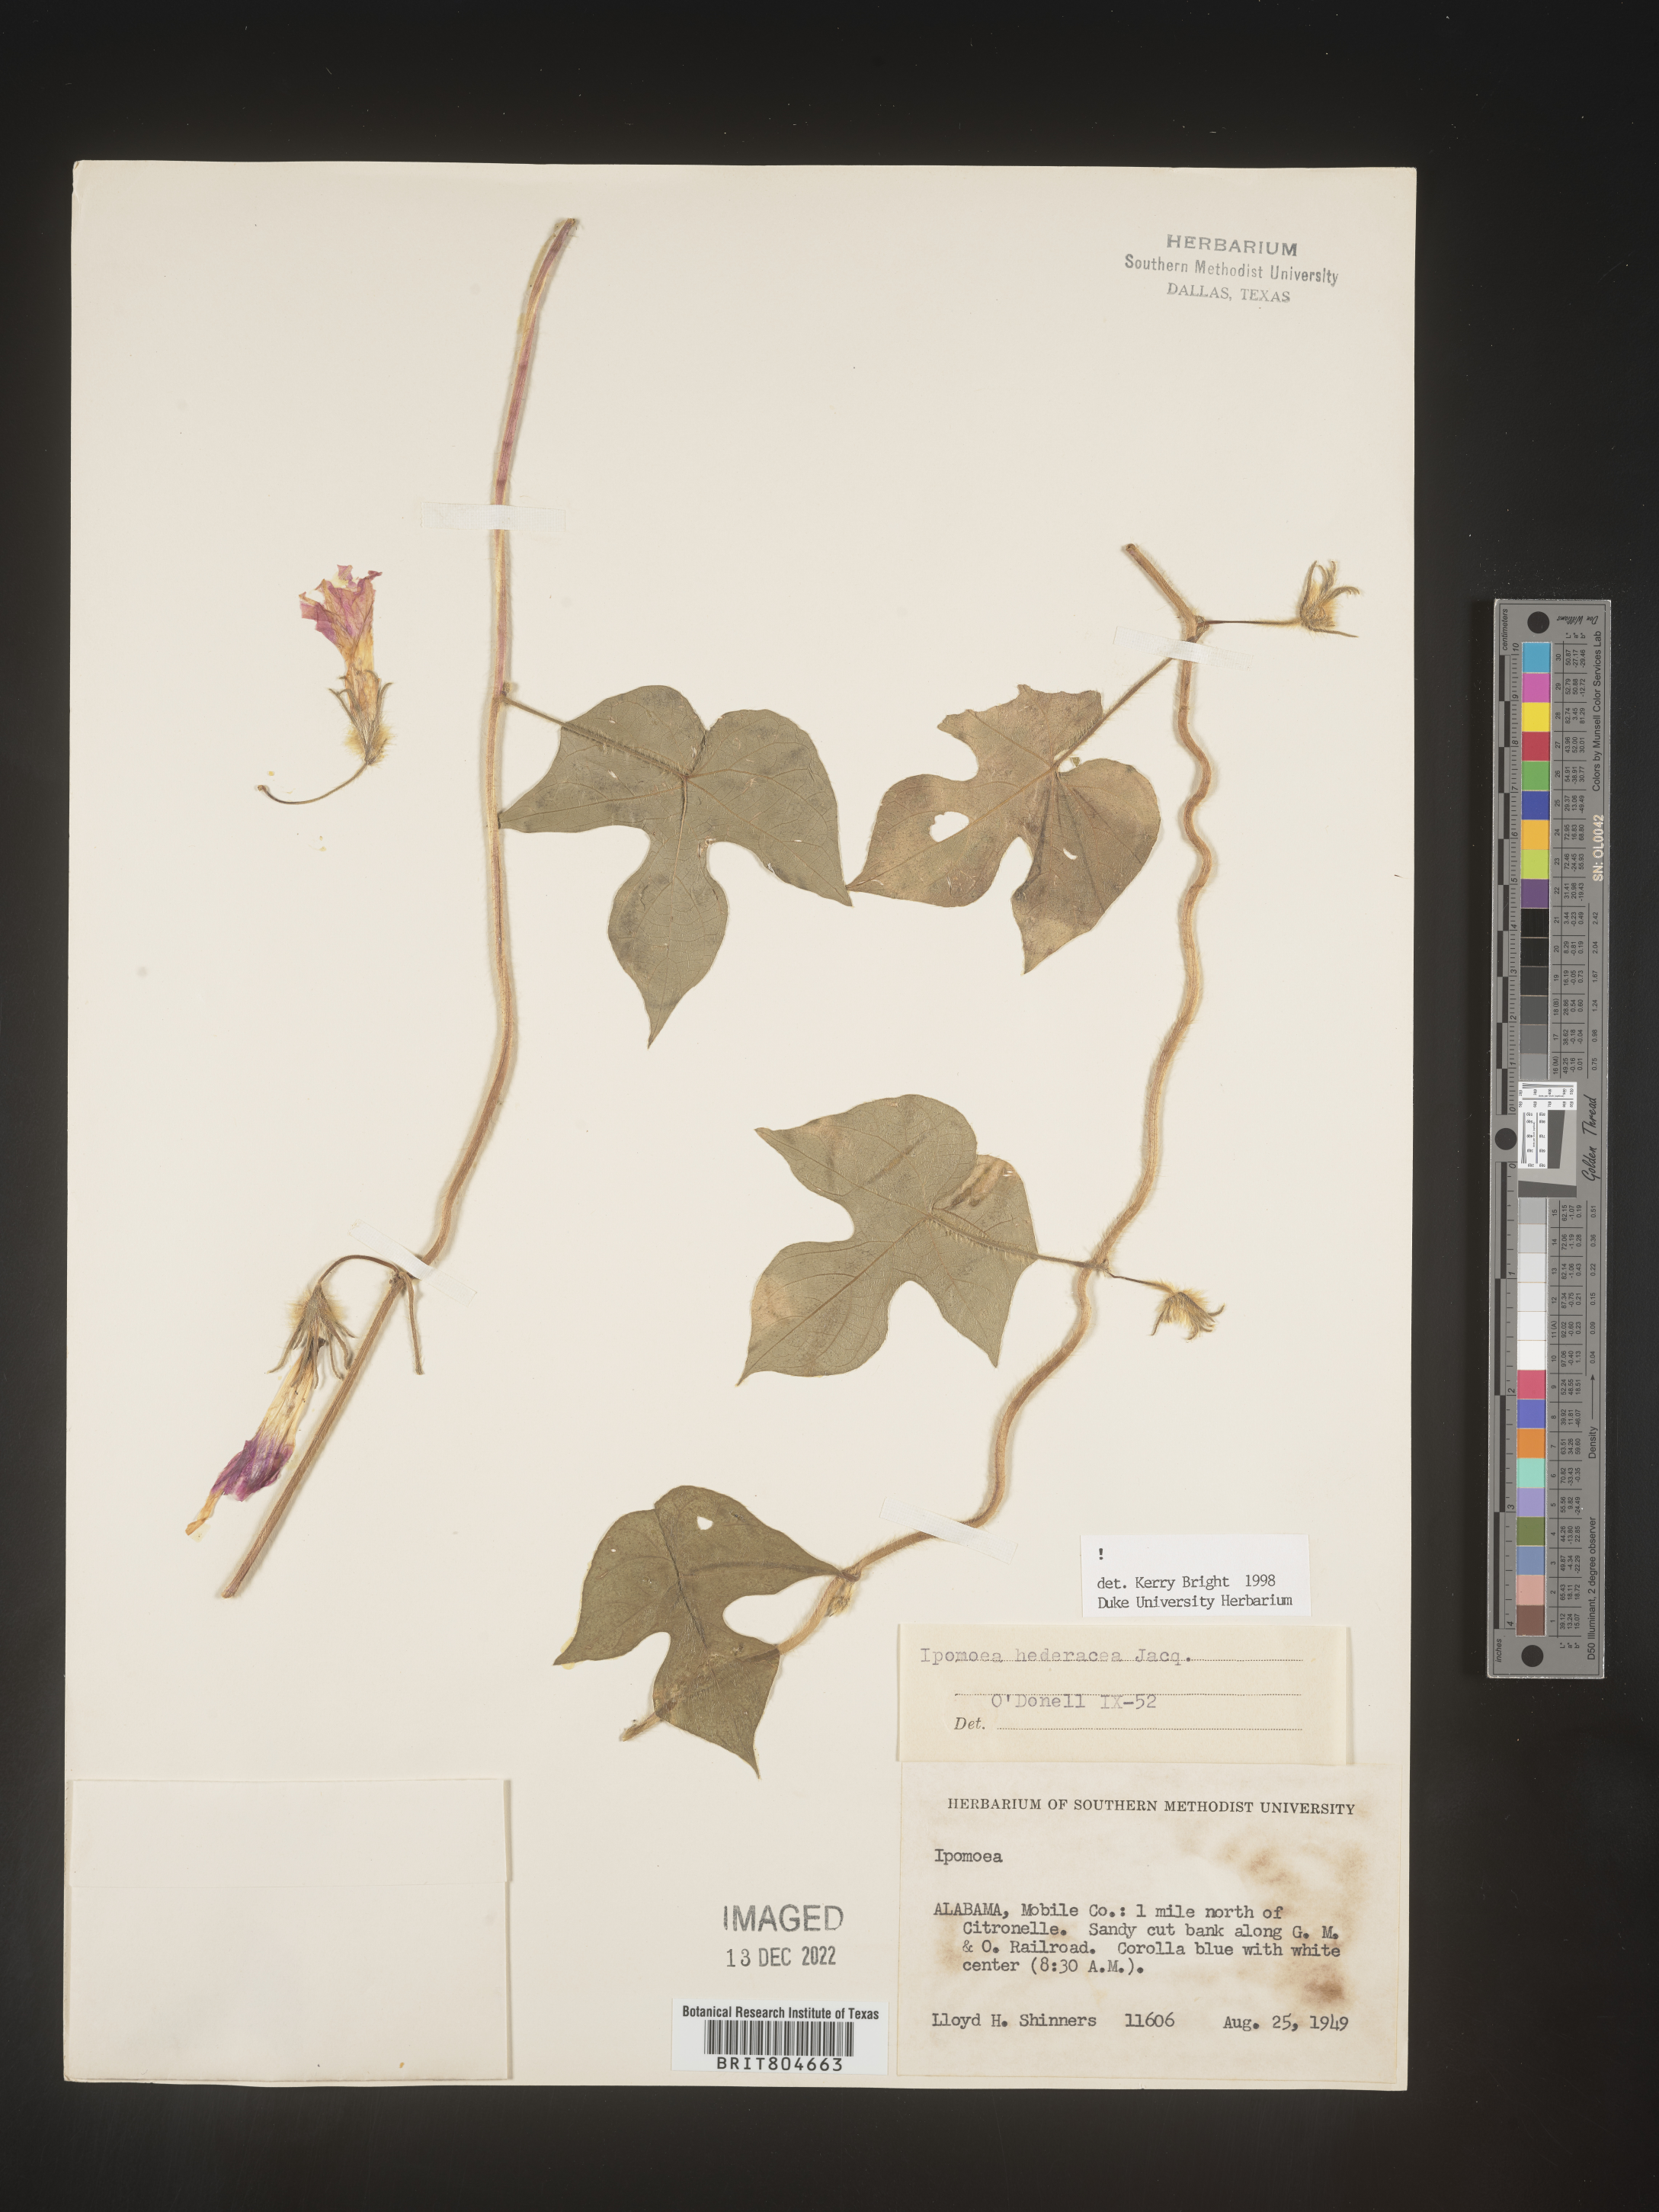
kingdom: Plantae
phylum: Tracheophyta
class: Magnoliopsida
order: Solanales
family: Convolvulaceae
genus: Ipomoea
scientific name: Ipomoea hederacea
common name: Ivy-leaved morning-glory
